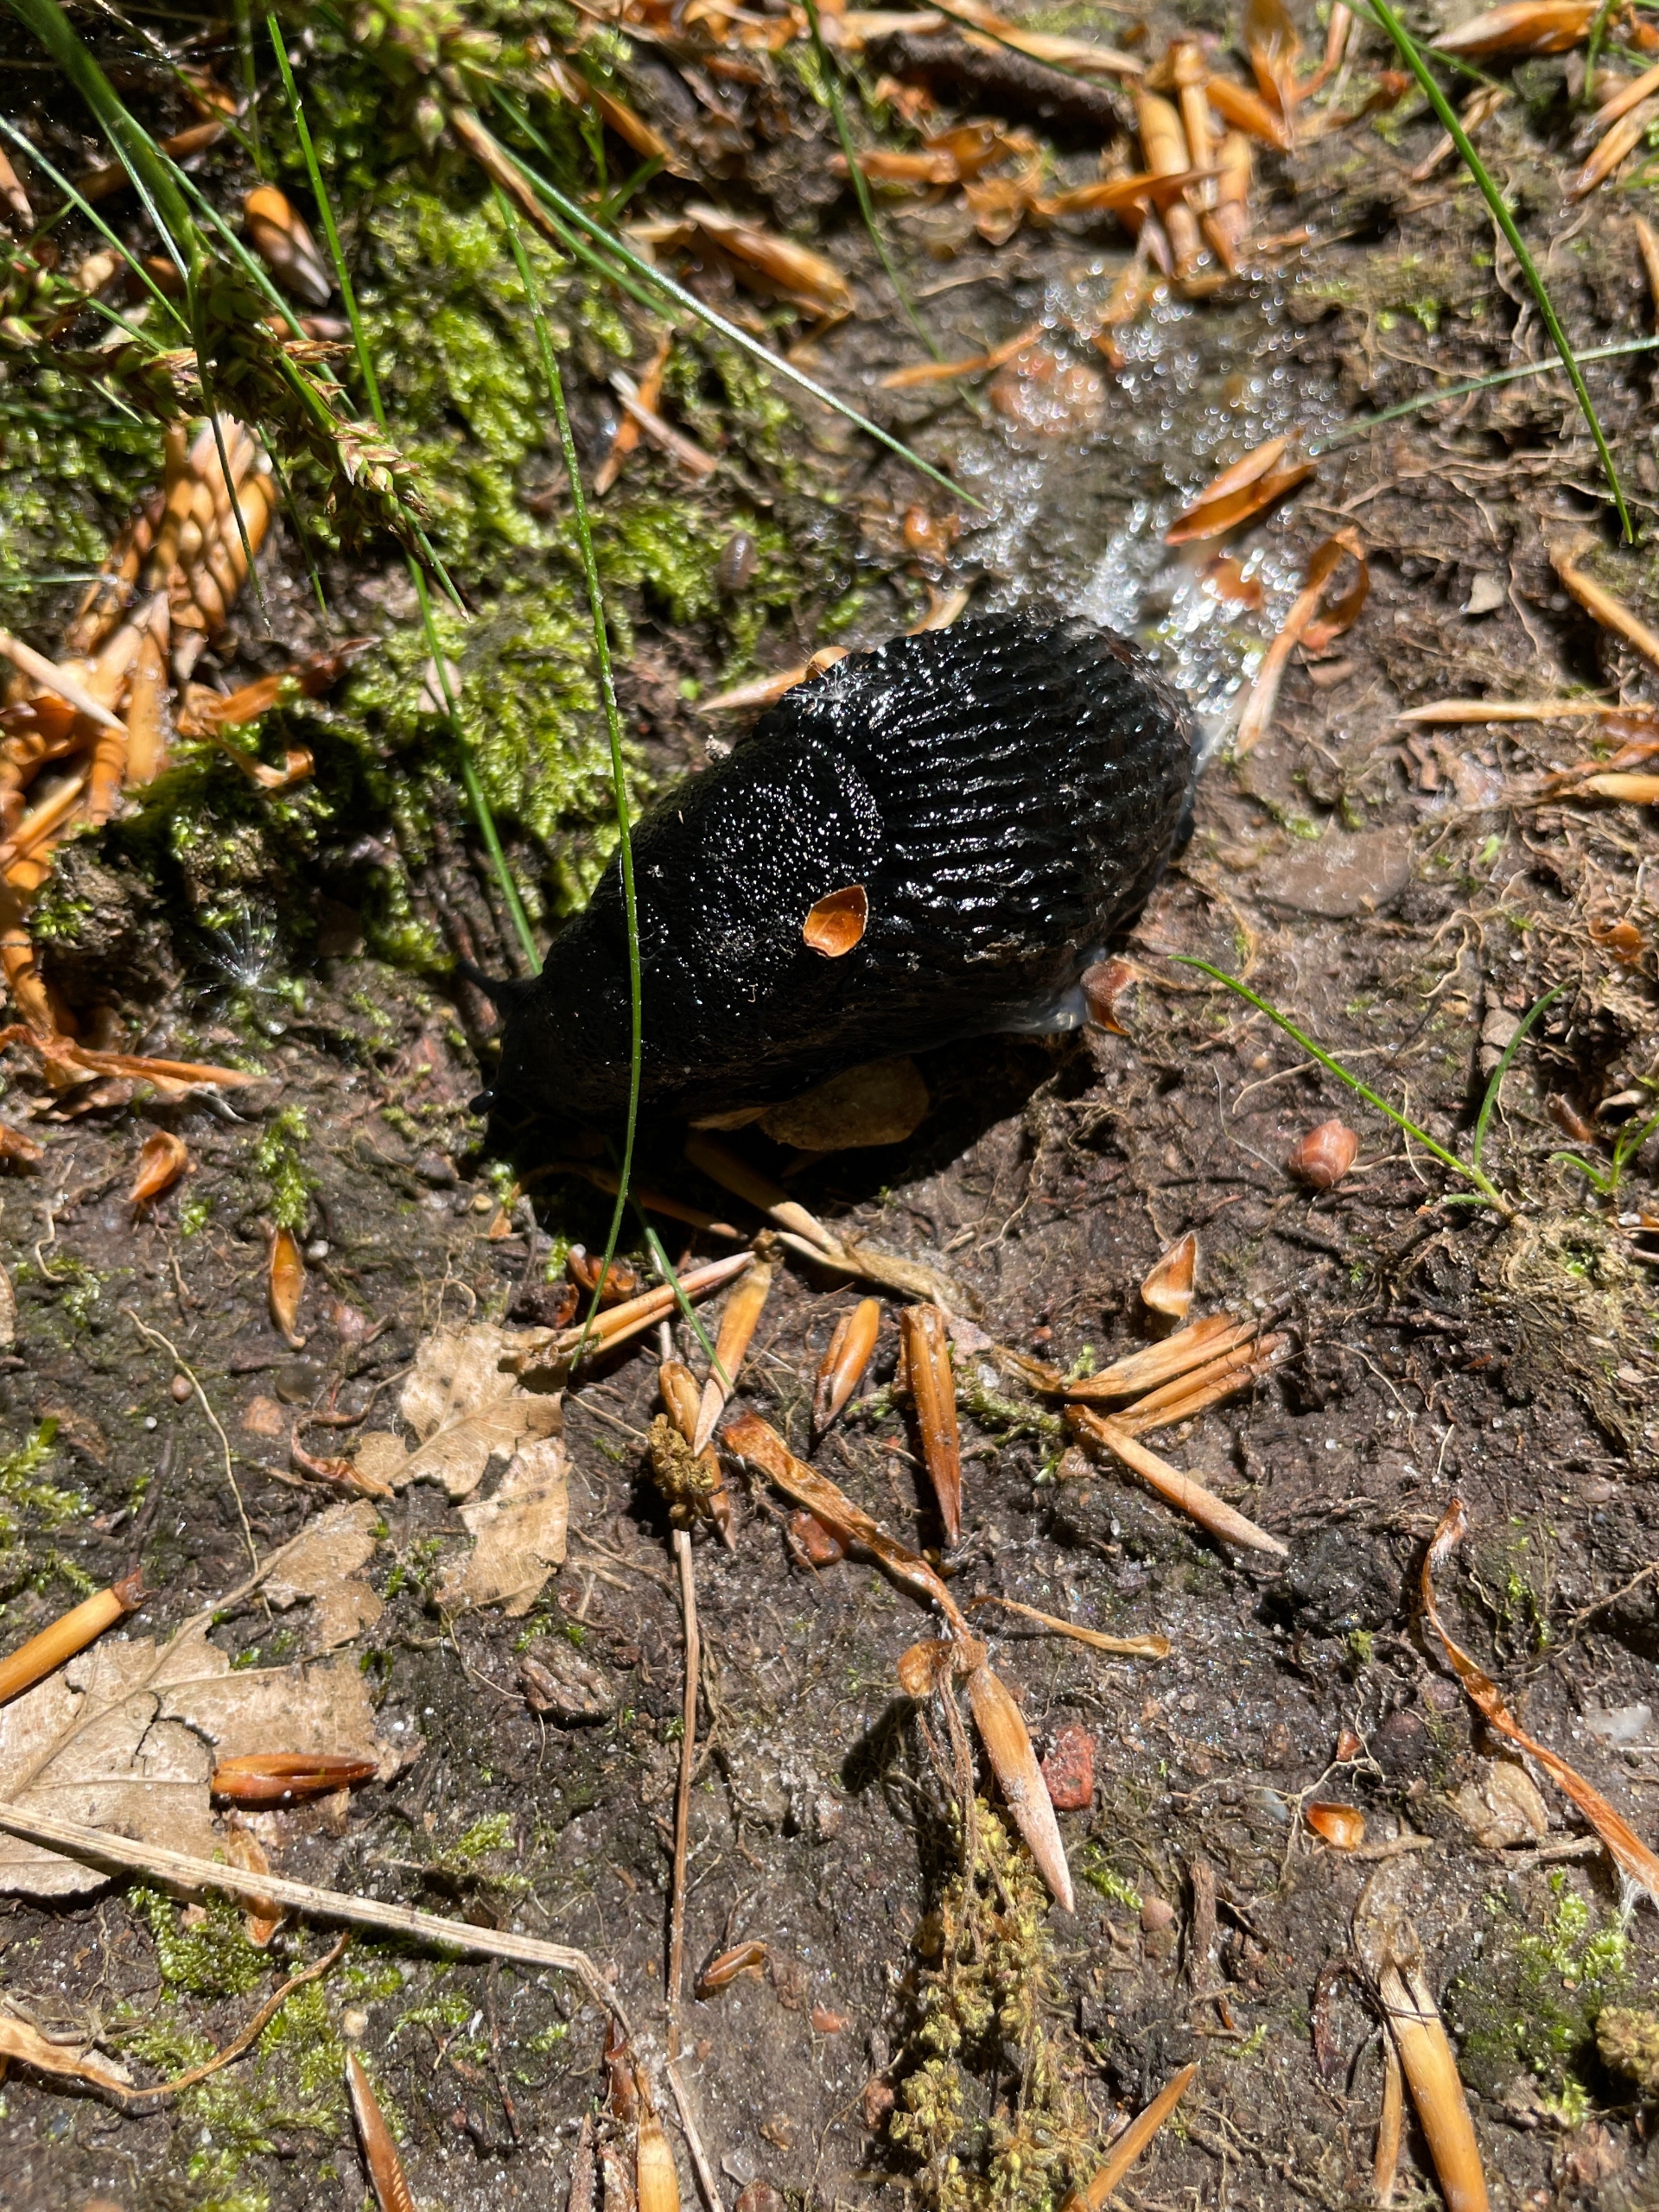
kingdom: Animalia
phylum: Mollusca
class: Gastropoda
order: Stylommatophora
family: Arionidae
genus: Arion
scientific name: Arion ater
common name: Sort skovsnegl
